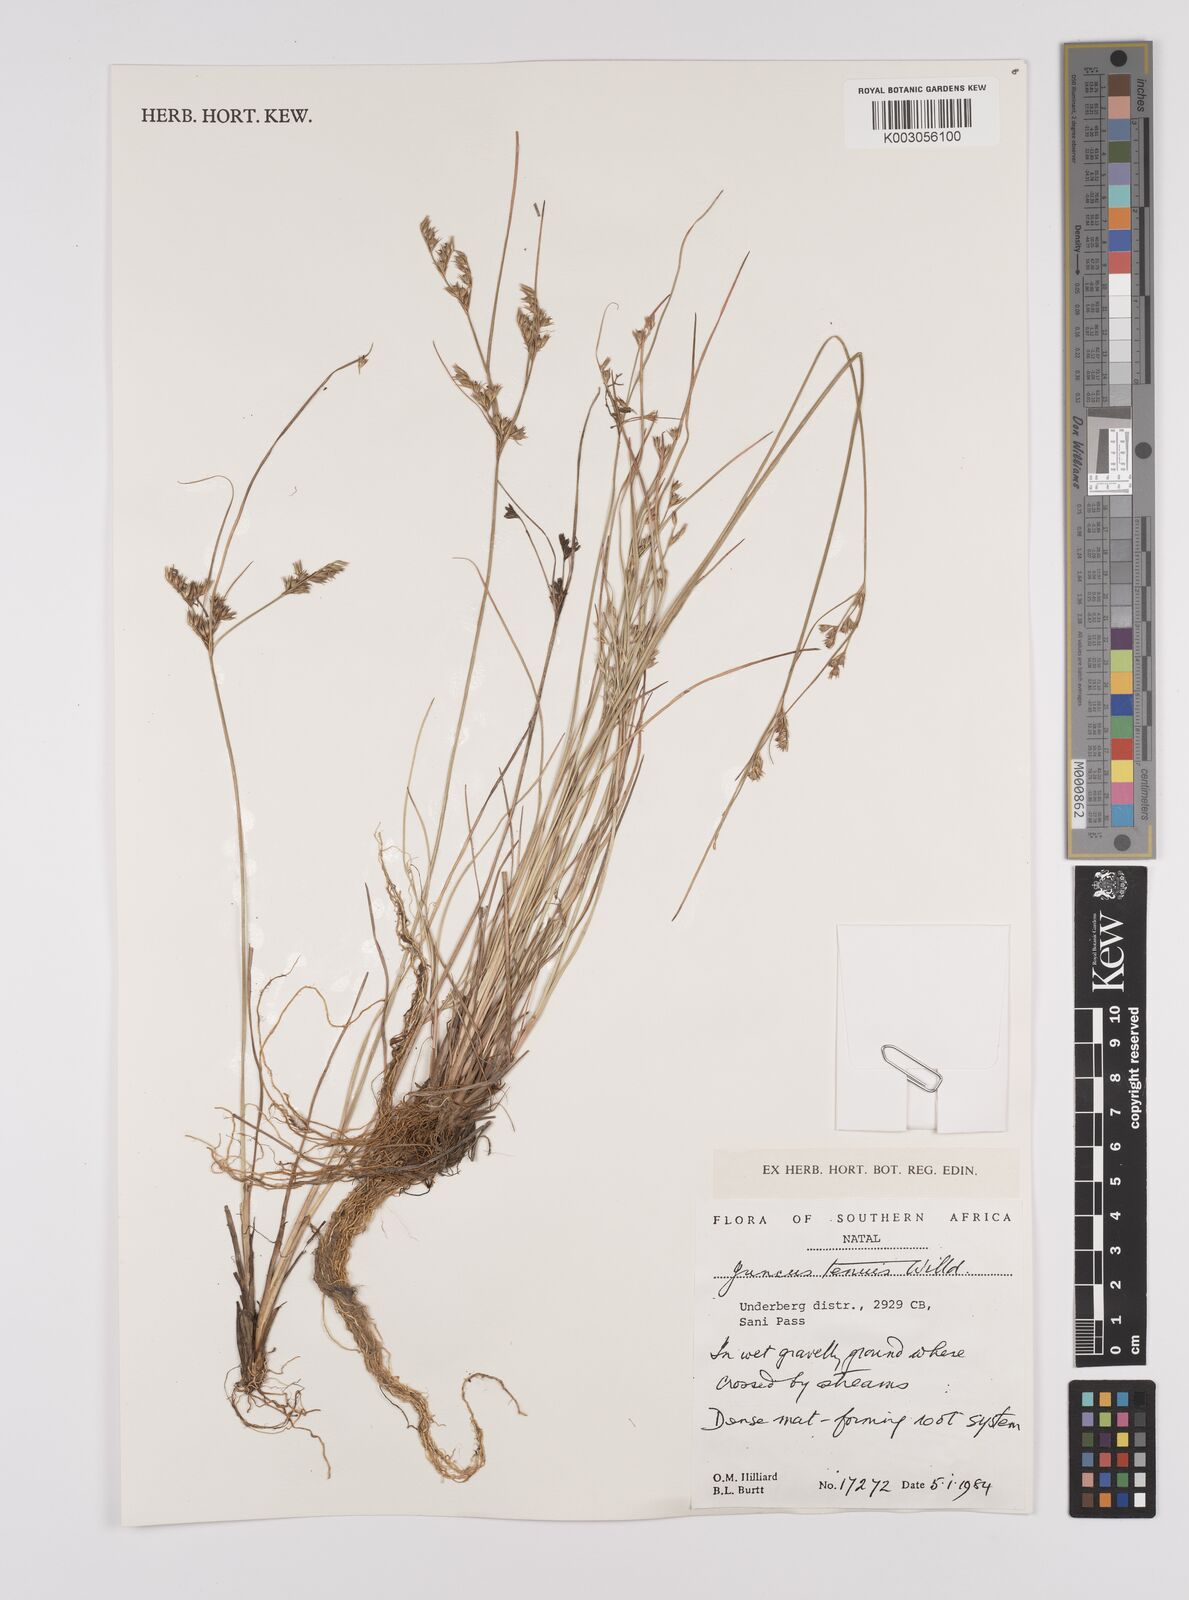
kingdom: Plantae
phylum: Tracheophyta
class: Liliopsida
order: Poales
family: Juncaceae
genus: Juncus
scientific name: Juncus tenuis
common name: Slender rush
